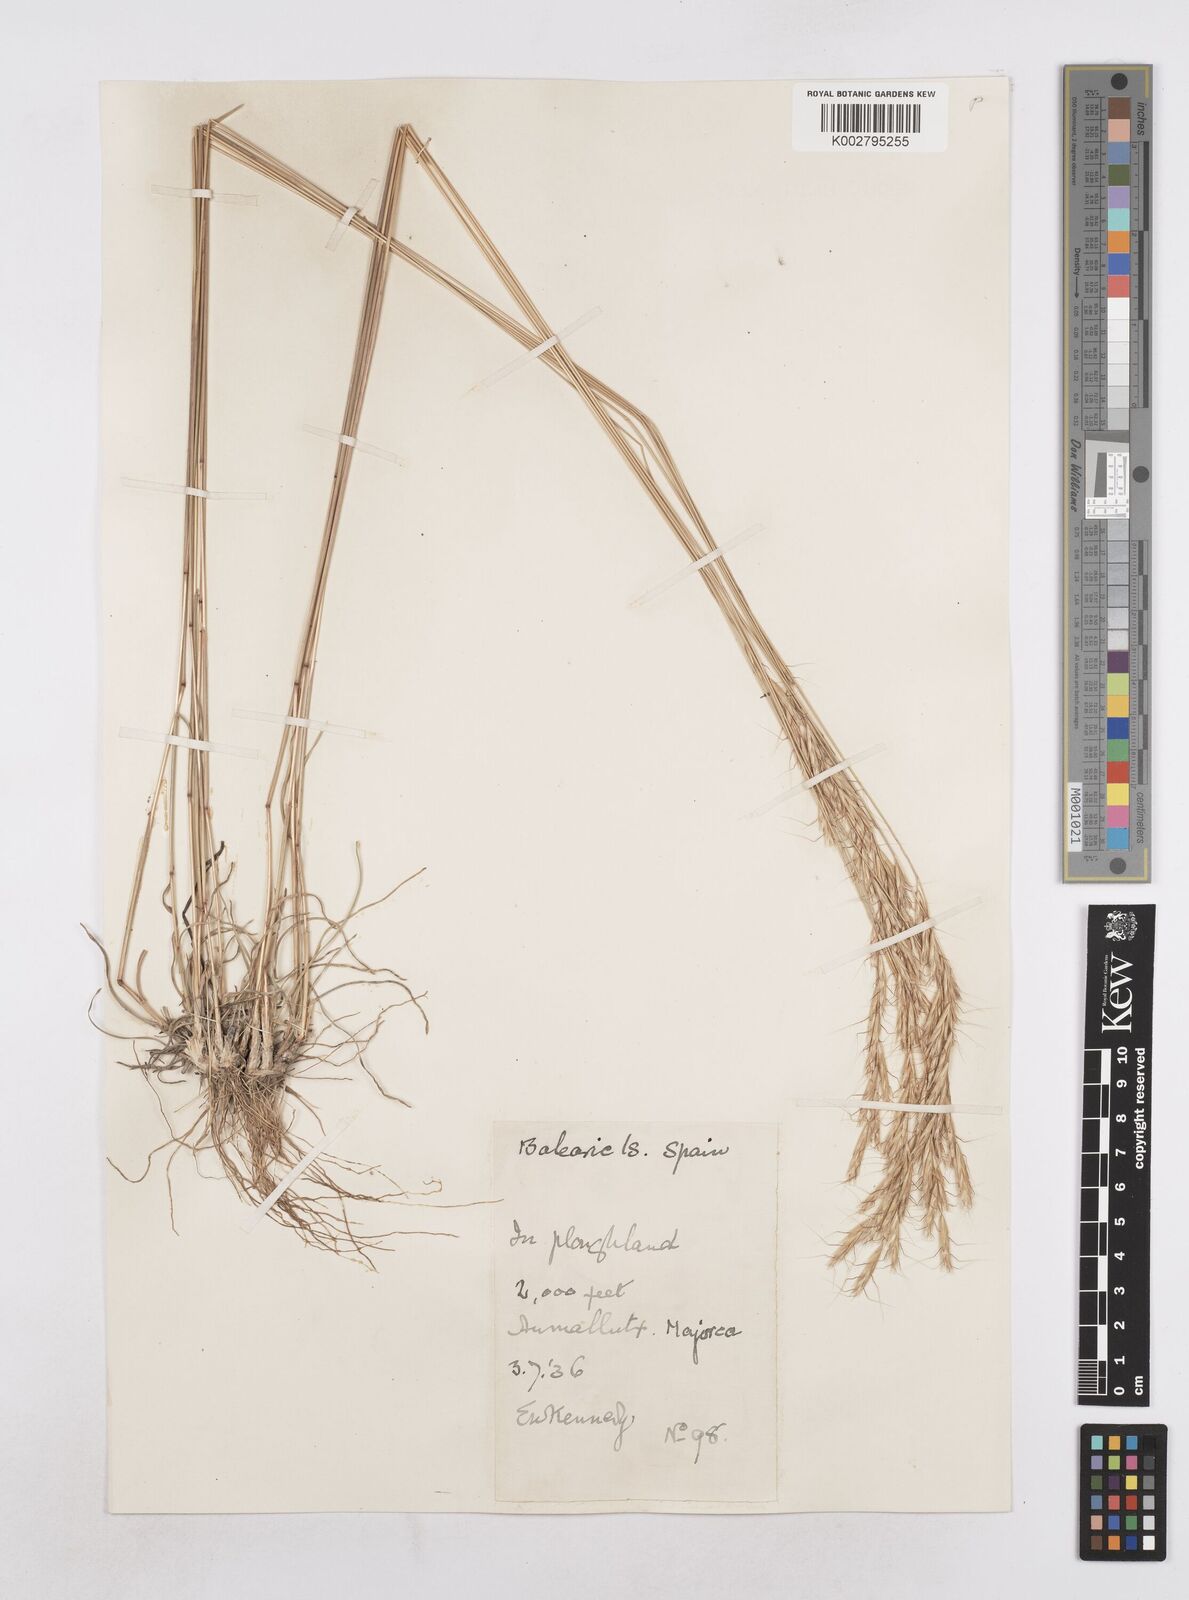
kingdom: Plantae
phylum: Tracheophyta
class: Liliopsida
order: Poales
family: Poaceae
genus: Helictochloa
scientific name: Helictochloa bromoides
